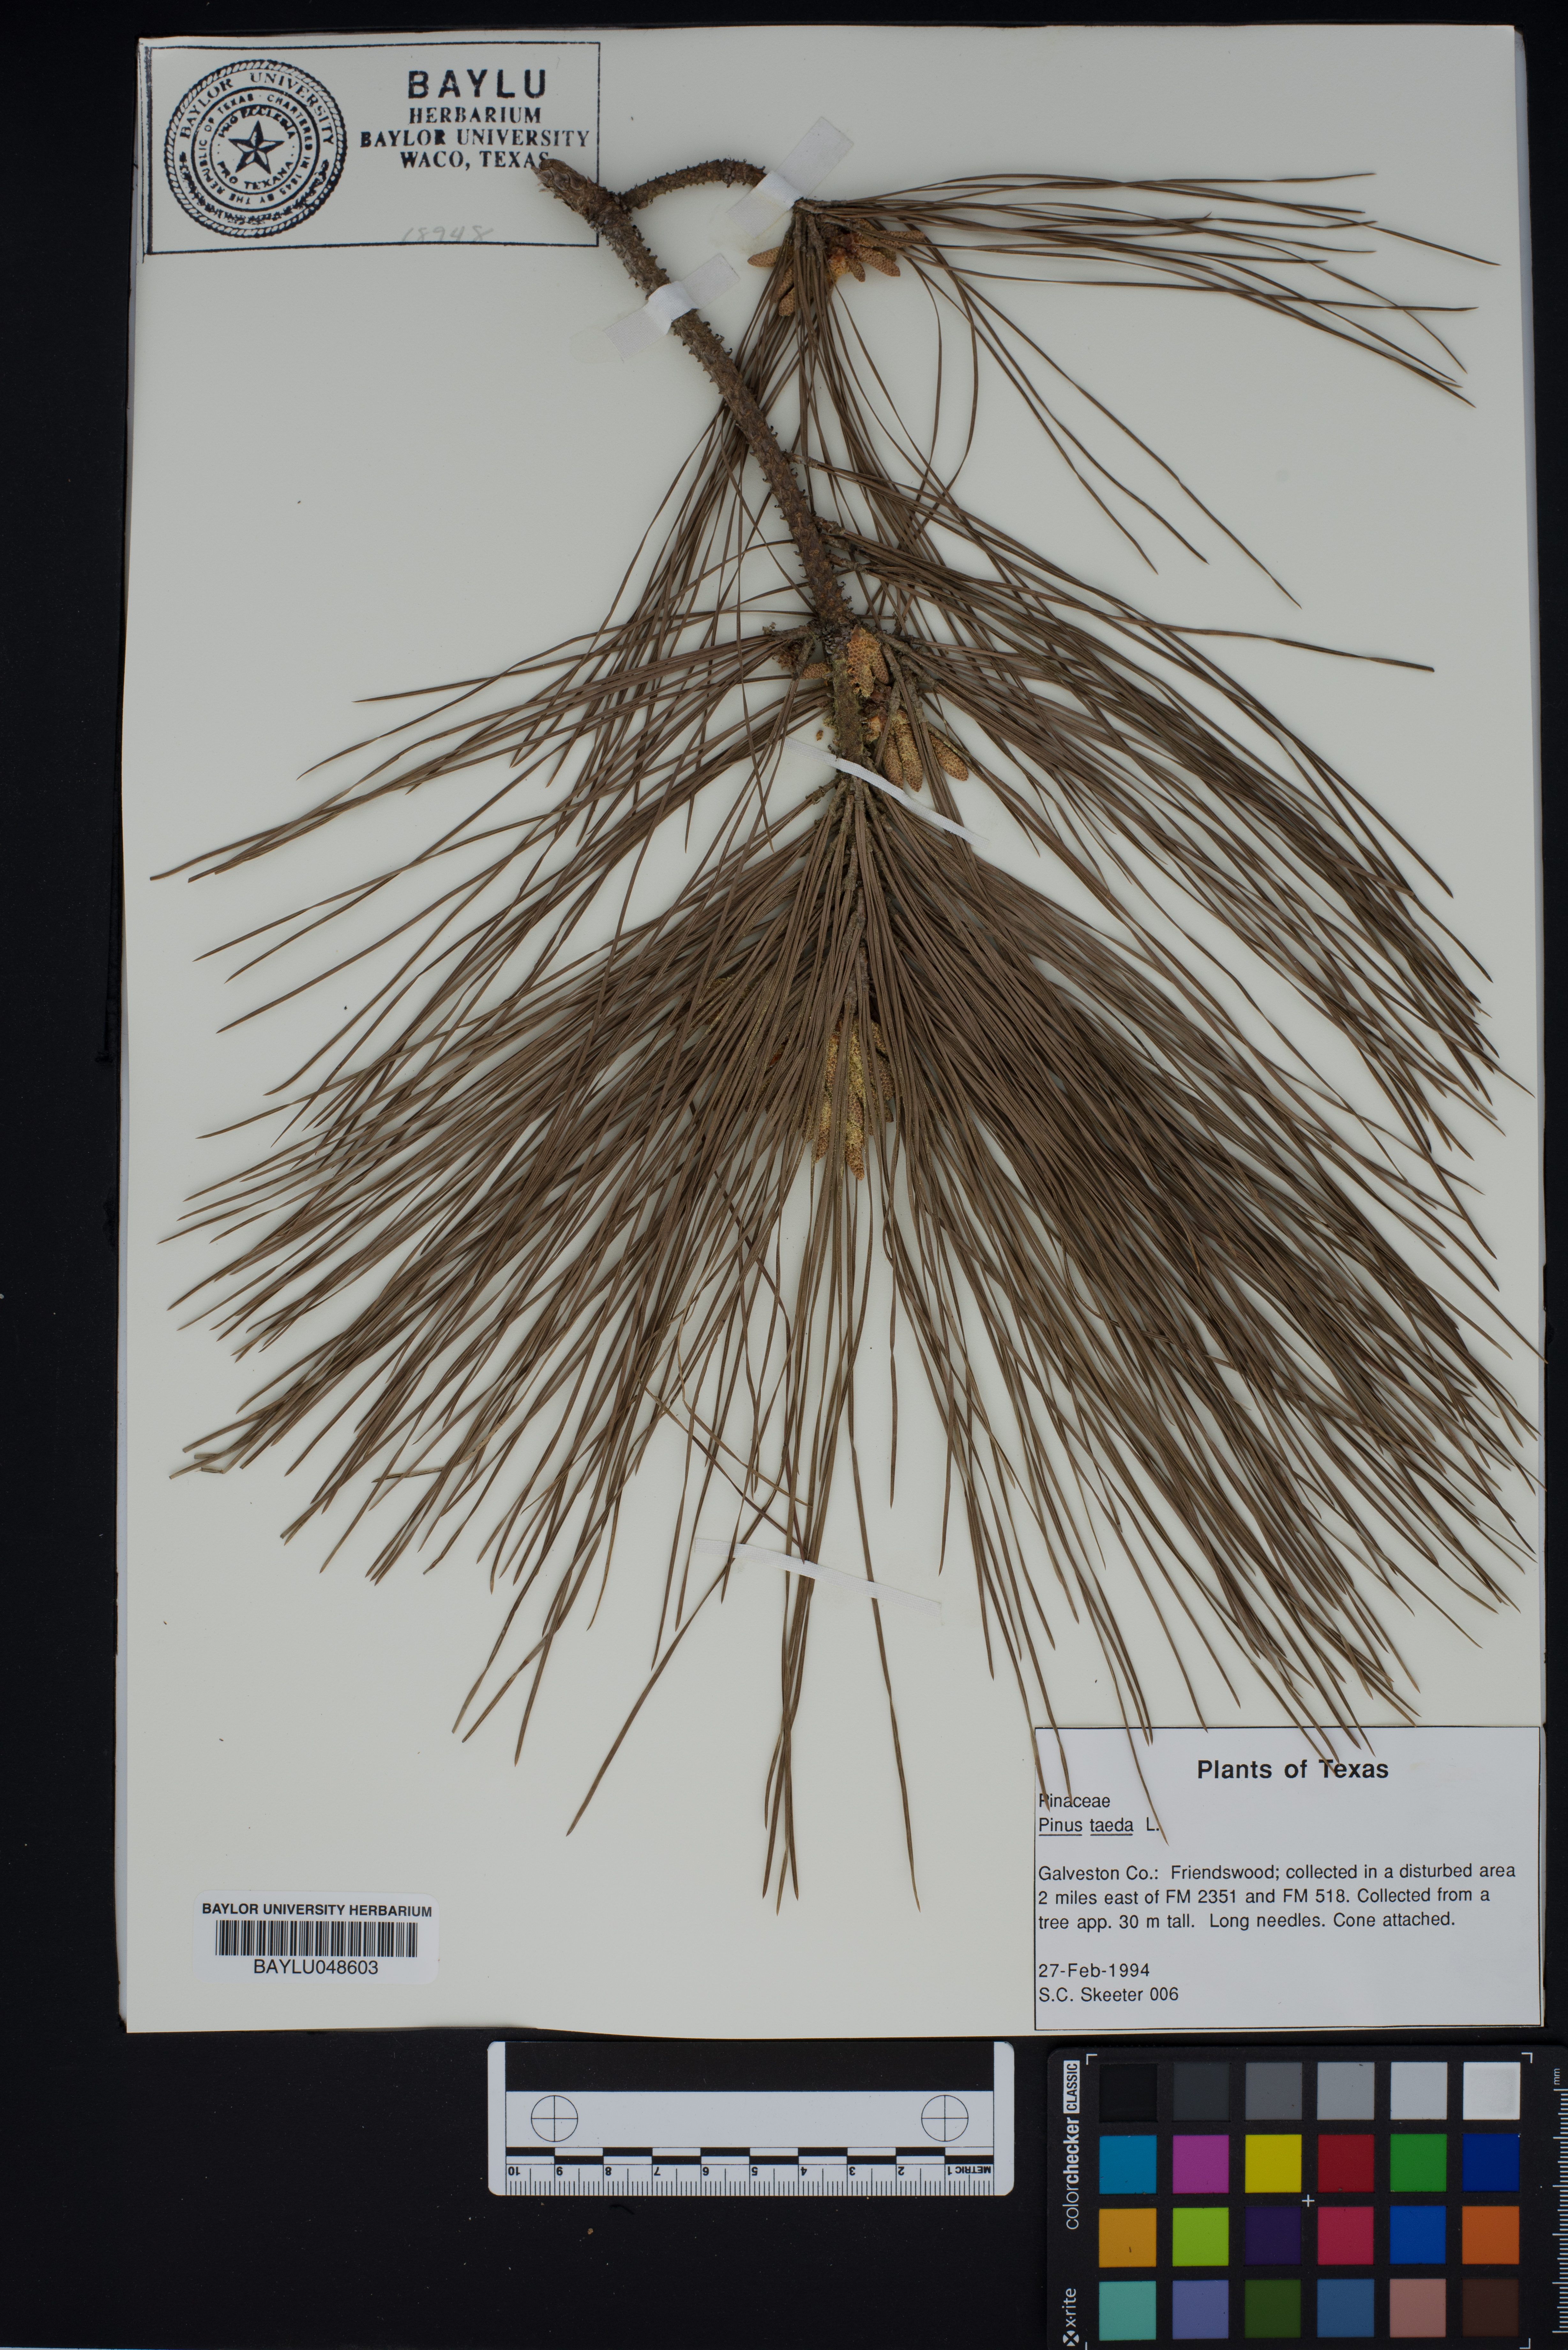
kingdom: Plantae
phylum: Tracheophyta
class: Pinopsida
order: Pinales
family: Pinaceae
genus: Pinus
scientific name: Pinus taeda
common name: Loblolly pine
